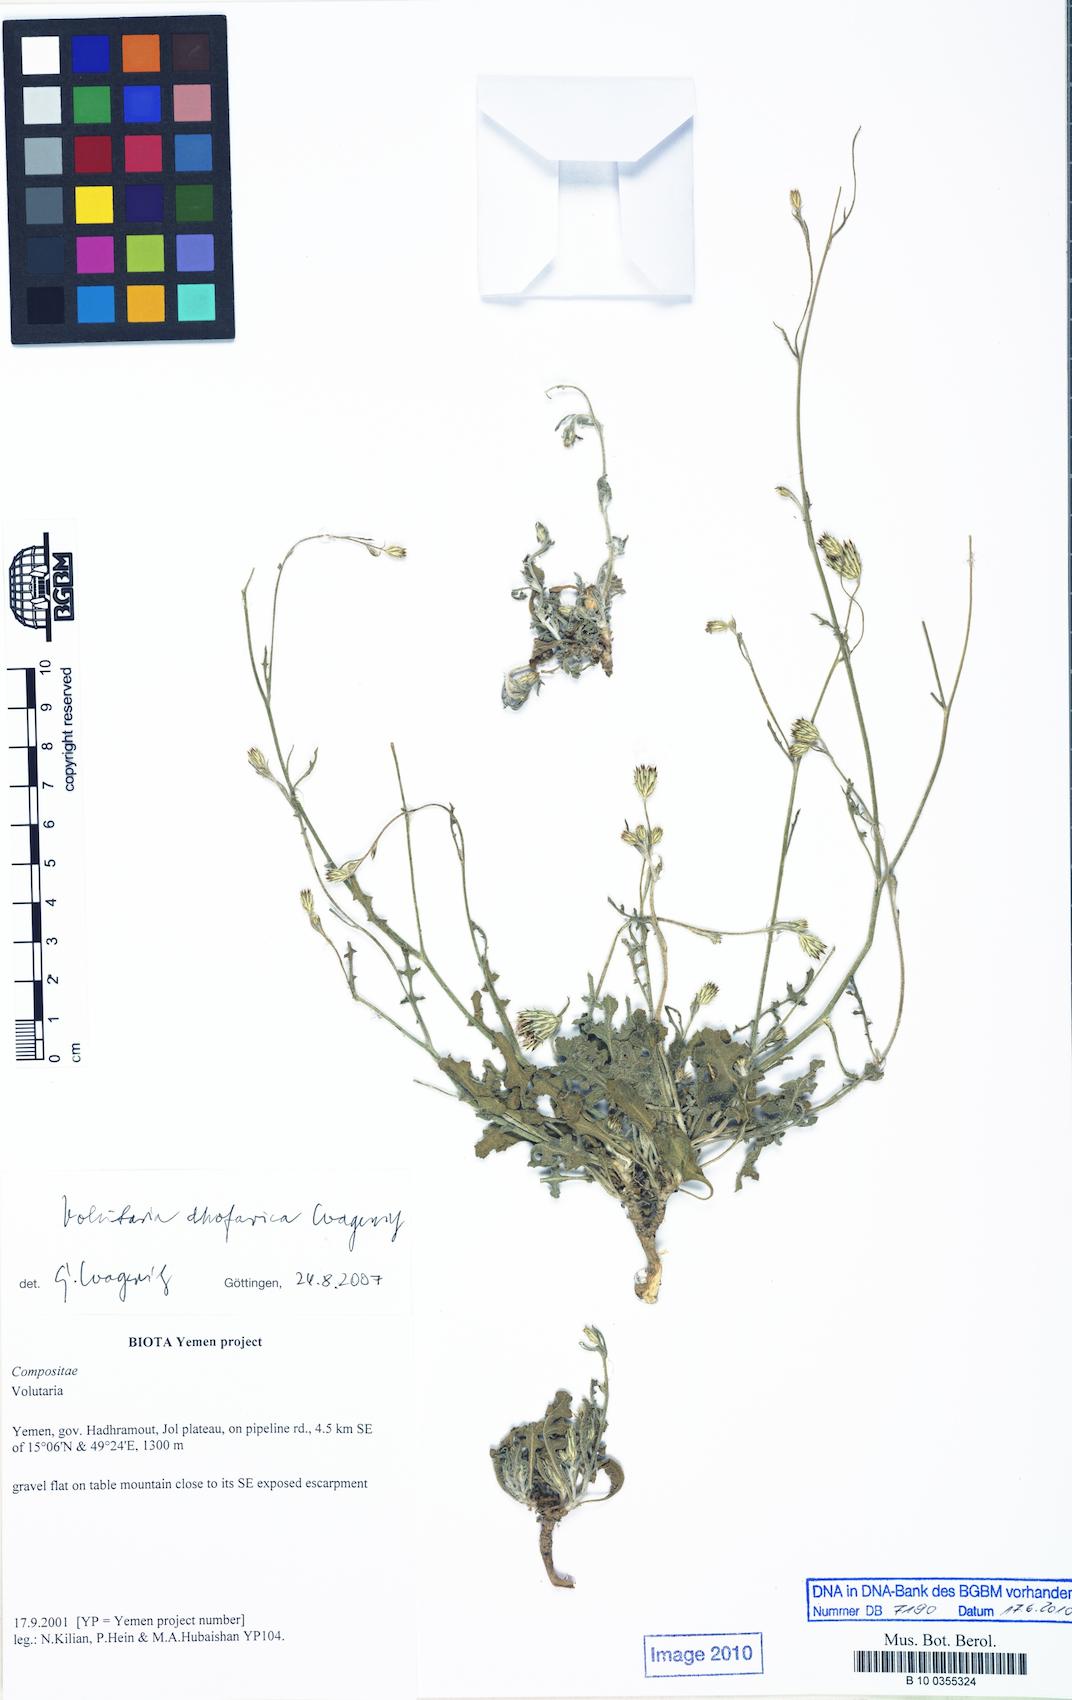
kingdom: Plantae
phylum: Tracheophyta
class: Magnoliopsida
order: Asterales
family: Asteraceae
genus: Volutaria
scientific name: Volutaria dhofarica
